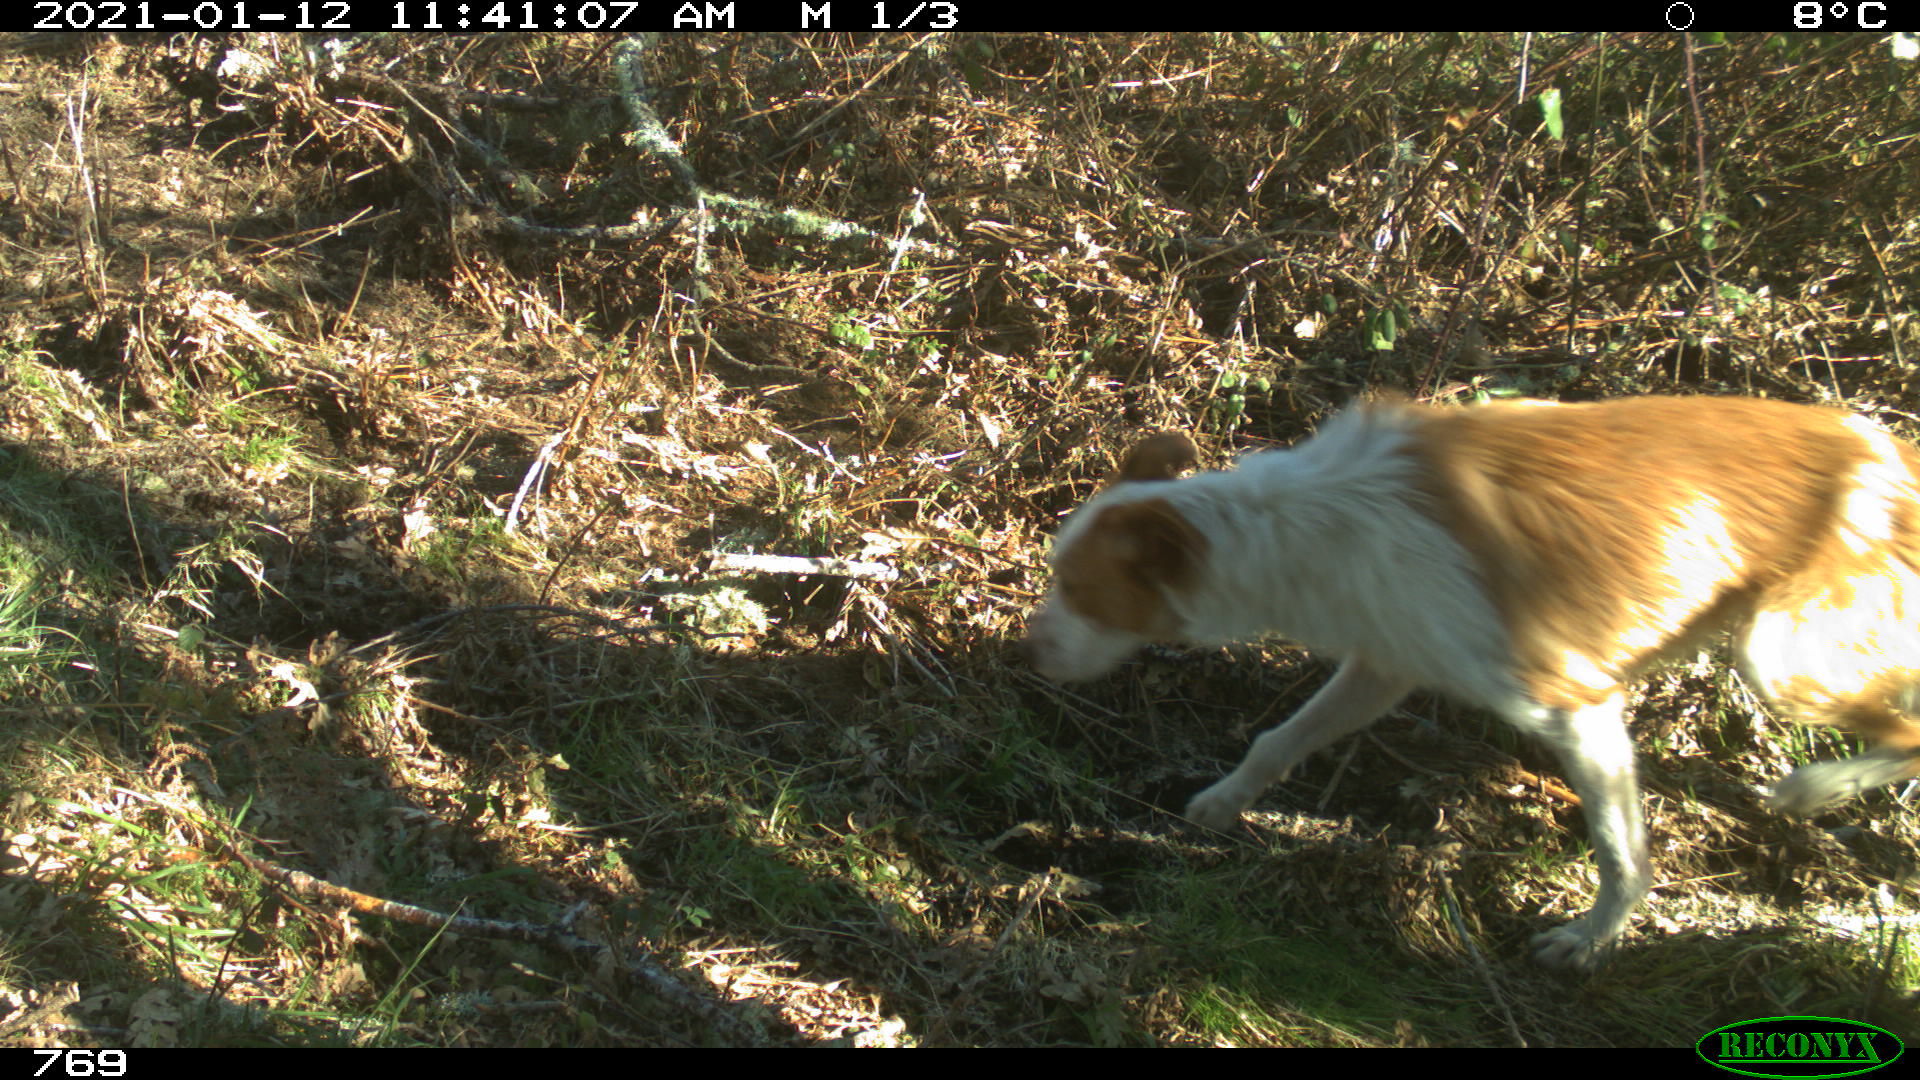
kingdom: Animalia
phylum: Chordata
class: Mammalia
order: Carnivora
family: Canidae
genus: Canis
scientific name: Canis lupus
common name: Gray wolf
